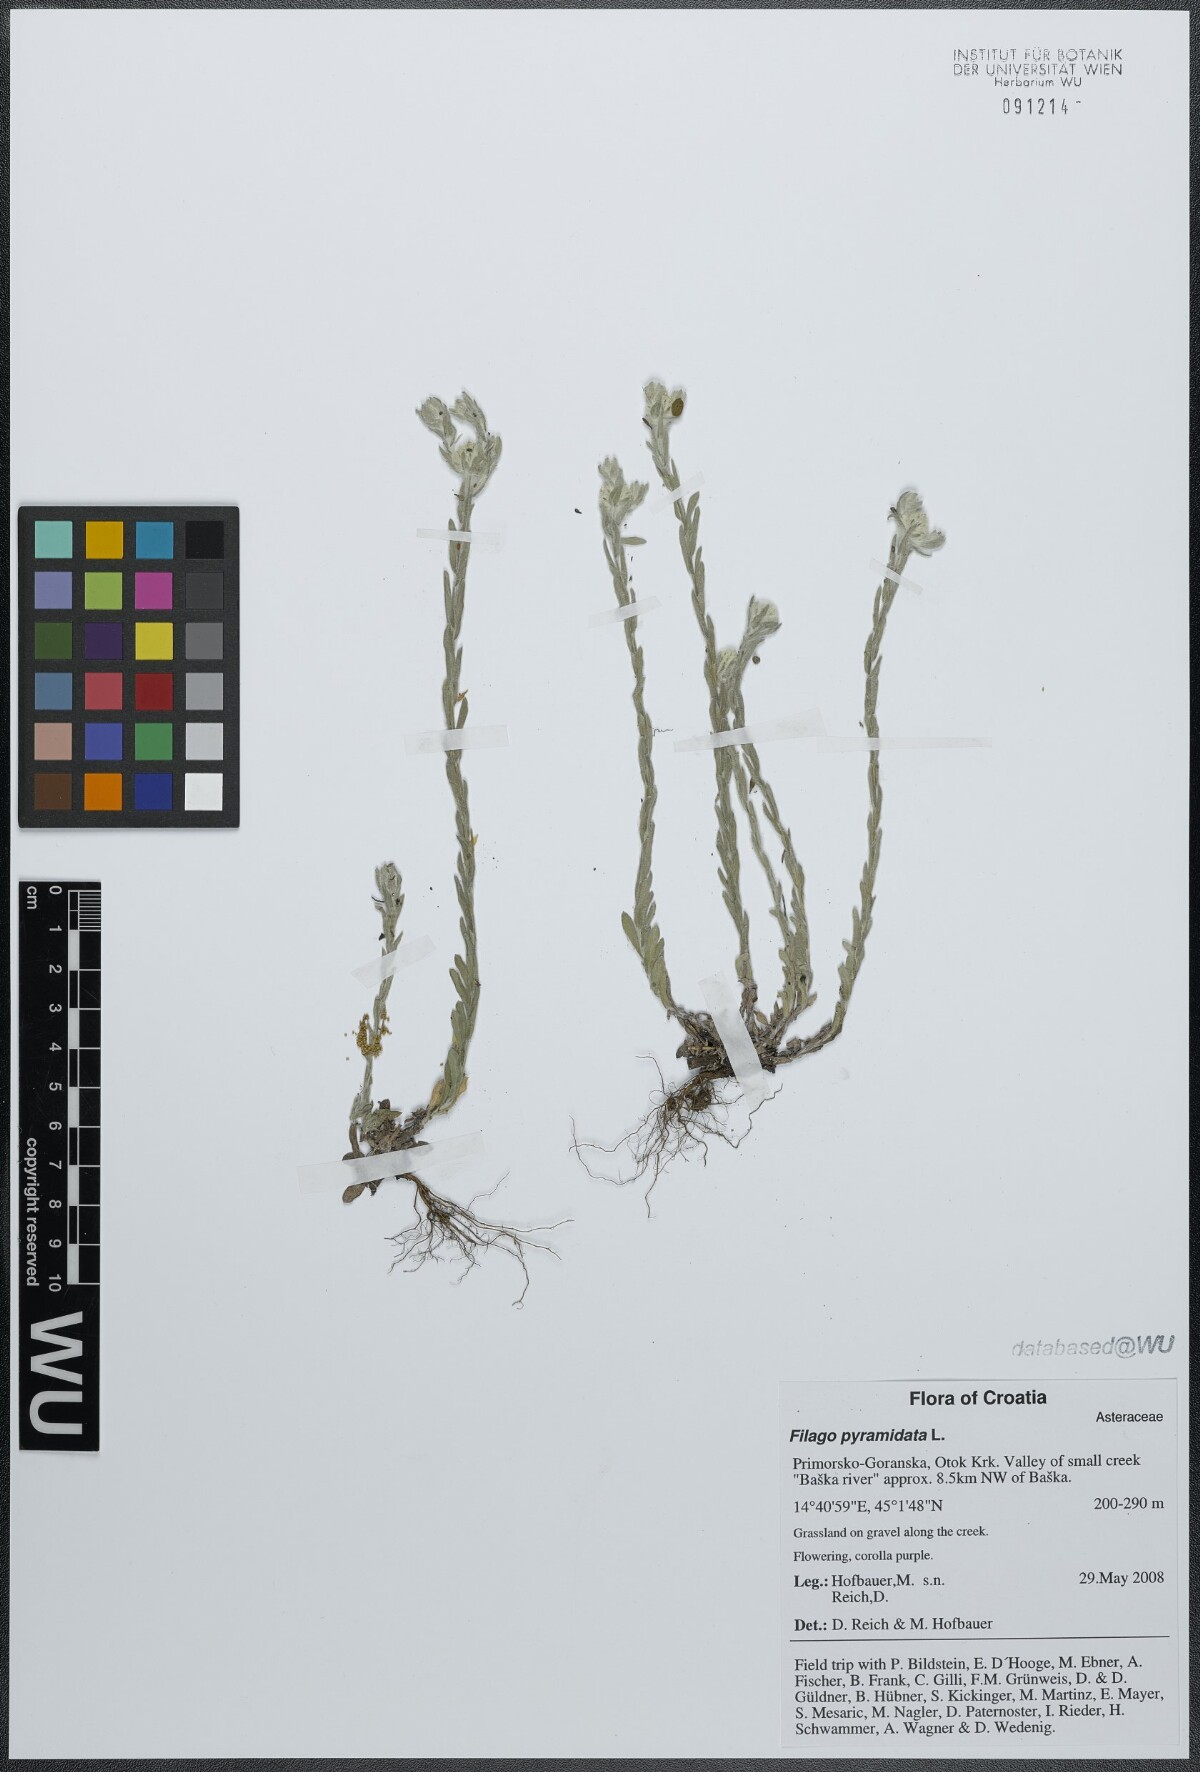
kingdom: Plantae
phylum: Tracheophyta
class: Magnoliopsida
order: Asterales
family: Asteraceae
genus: Filago
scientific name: Filago pyramidata
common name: Broad-leaved cudweed
